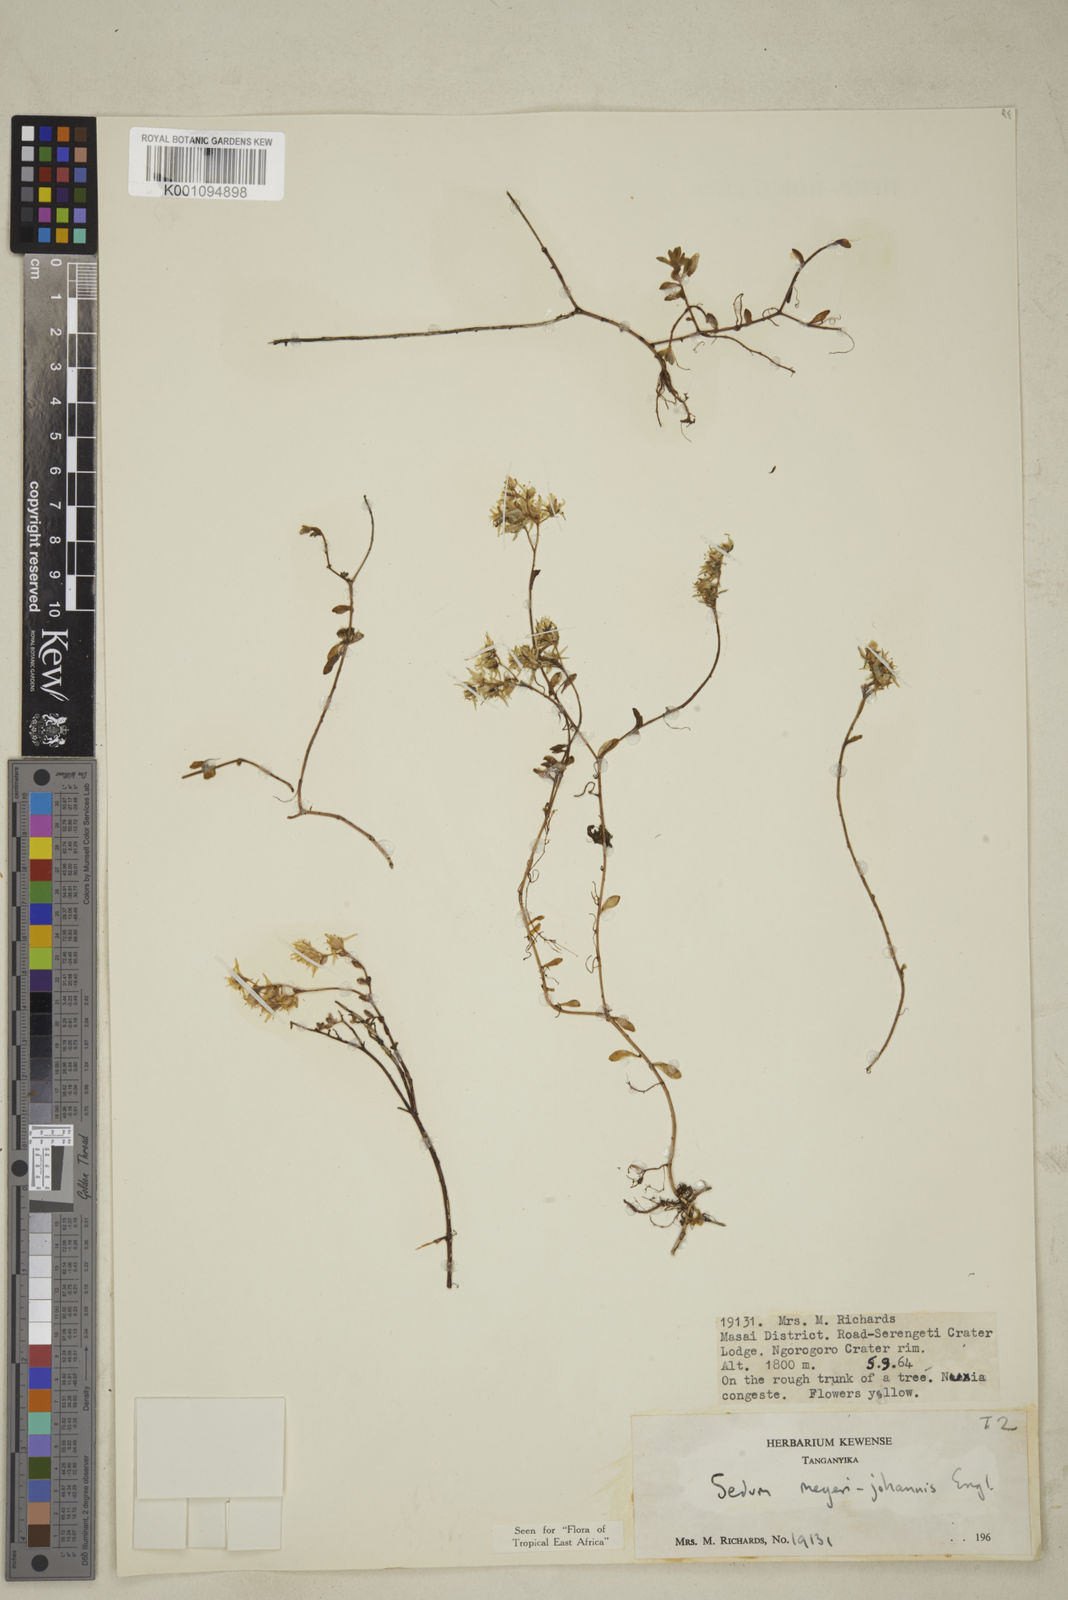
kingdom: Plantae
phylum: Tracheophyta
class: Magnoliopsida
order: Saxifragales
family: Crassulaceae
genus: Sedum
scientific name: Sedum meyeri-johannis
